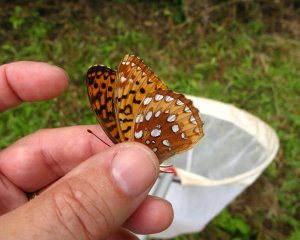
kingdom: Animalia
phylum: Arthropoda
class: Insecta
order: Lepidoptera
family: Nymphalidae
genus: Speyeria
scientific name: Speyeria cybele
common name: Great Spangled Fritillary
